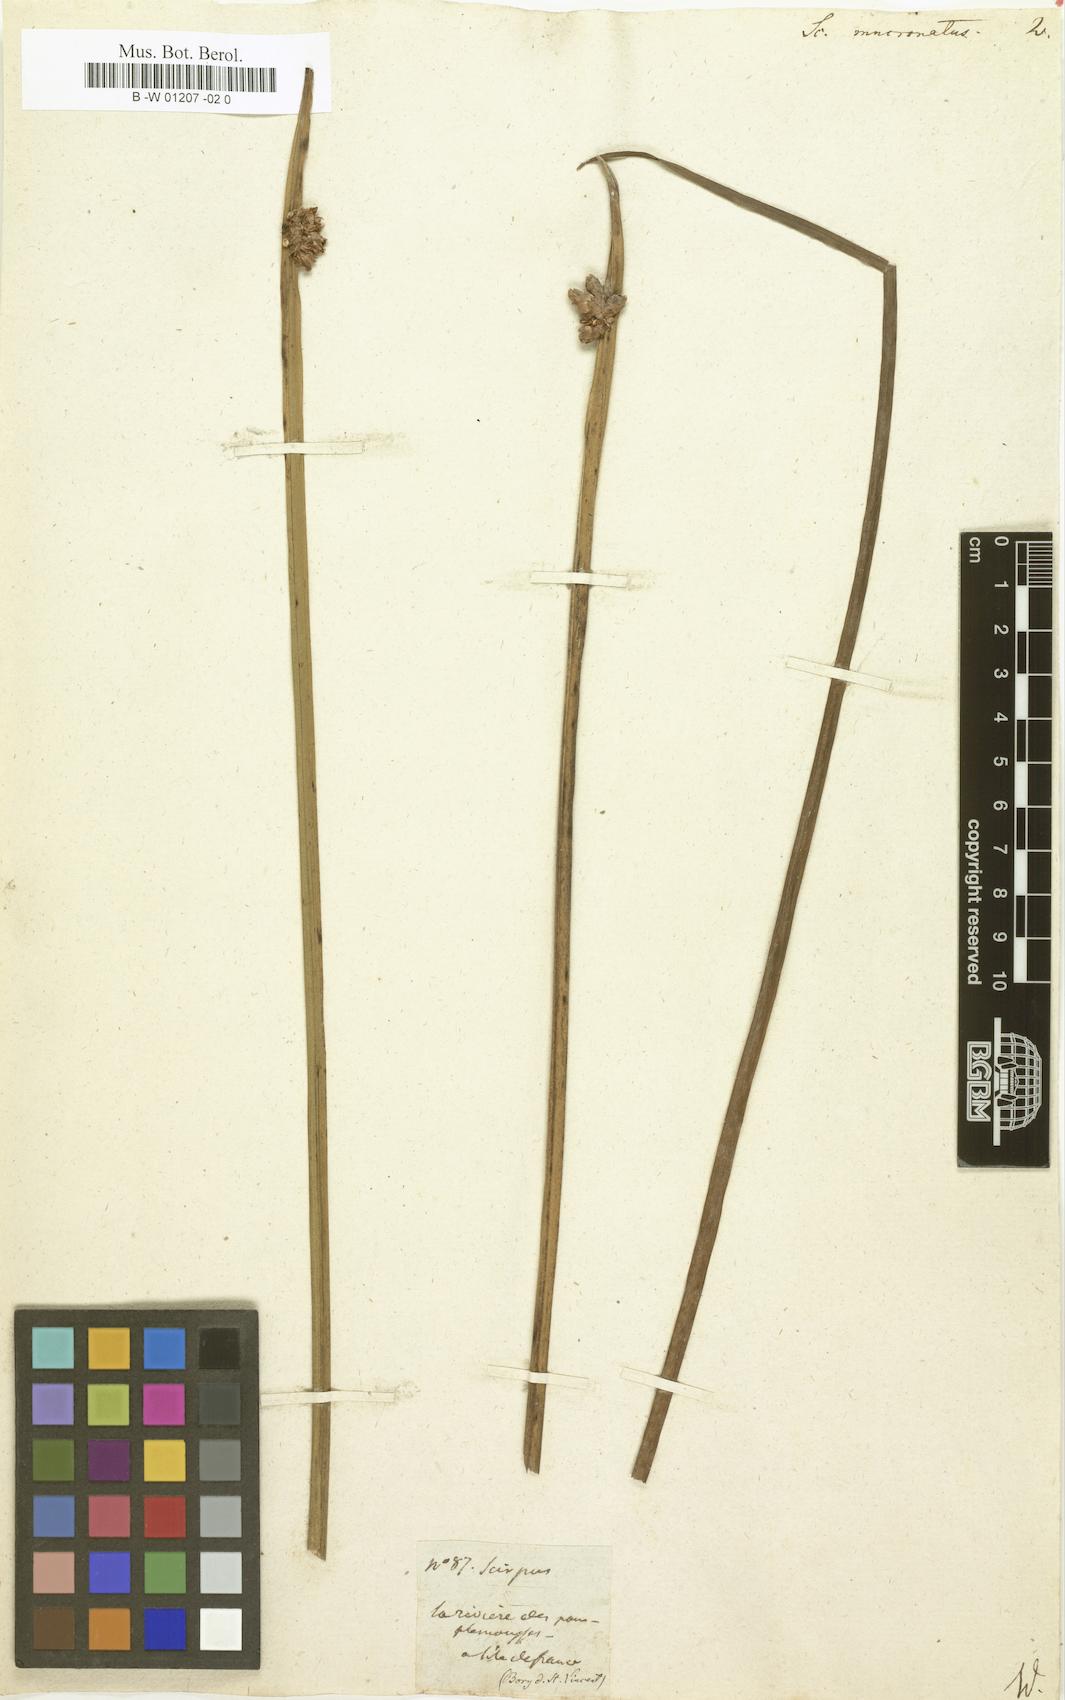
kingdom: Plantae
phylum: Tracheophyta
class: Liliopsida
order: Poales
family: Cyperaceae
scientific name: Cyperaceae
